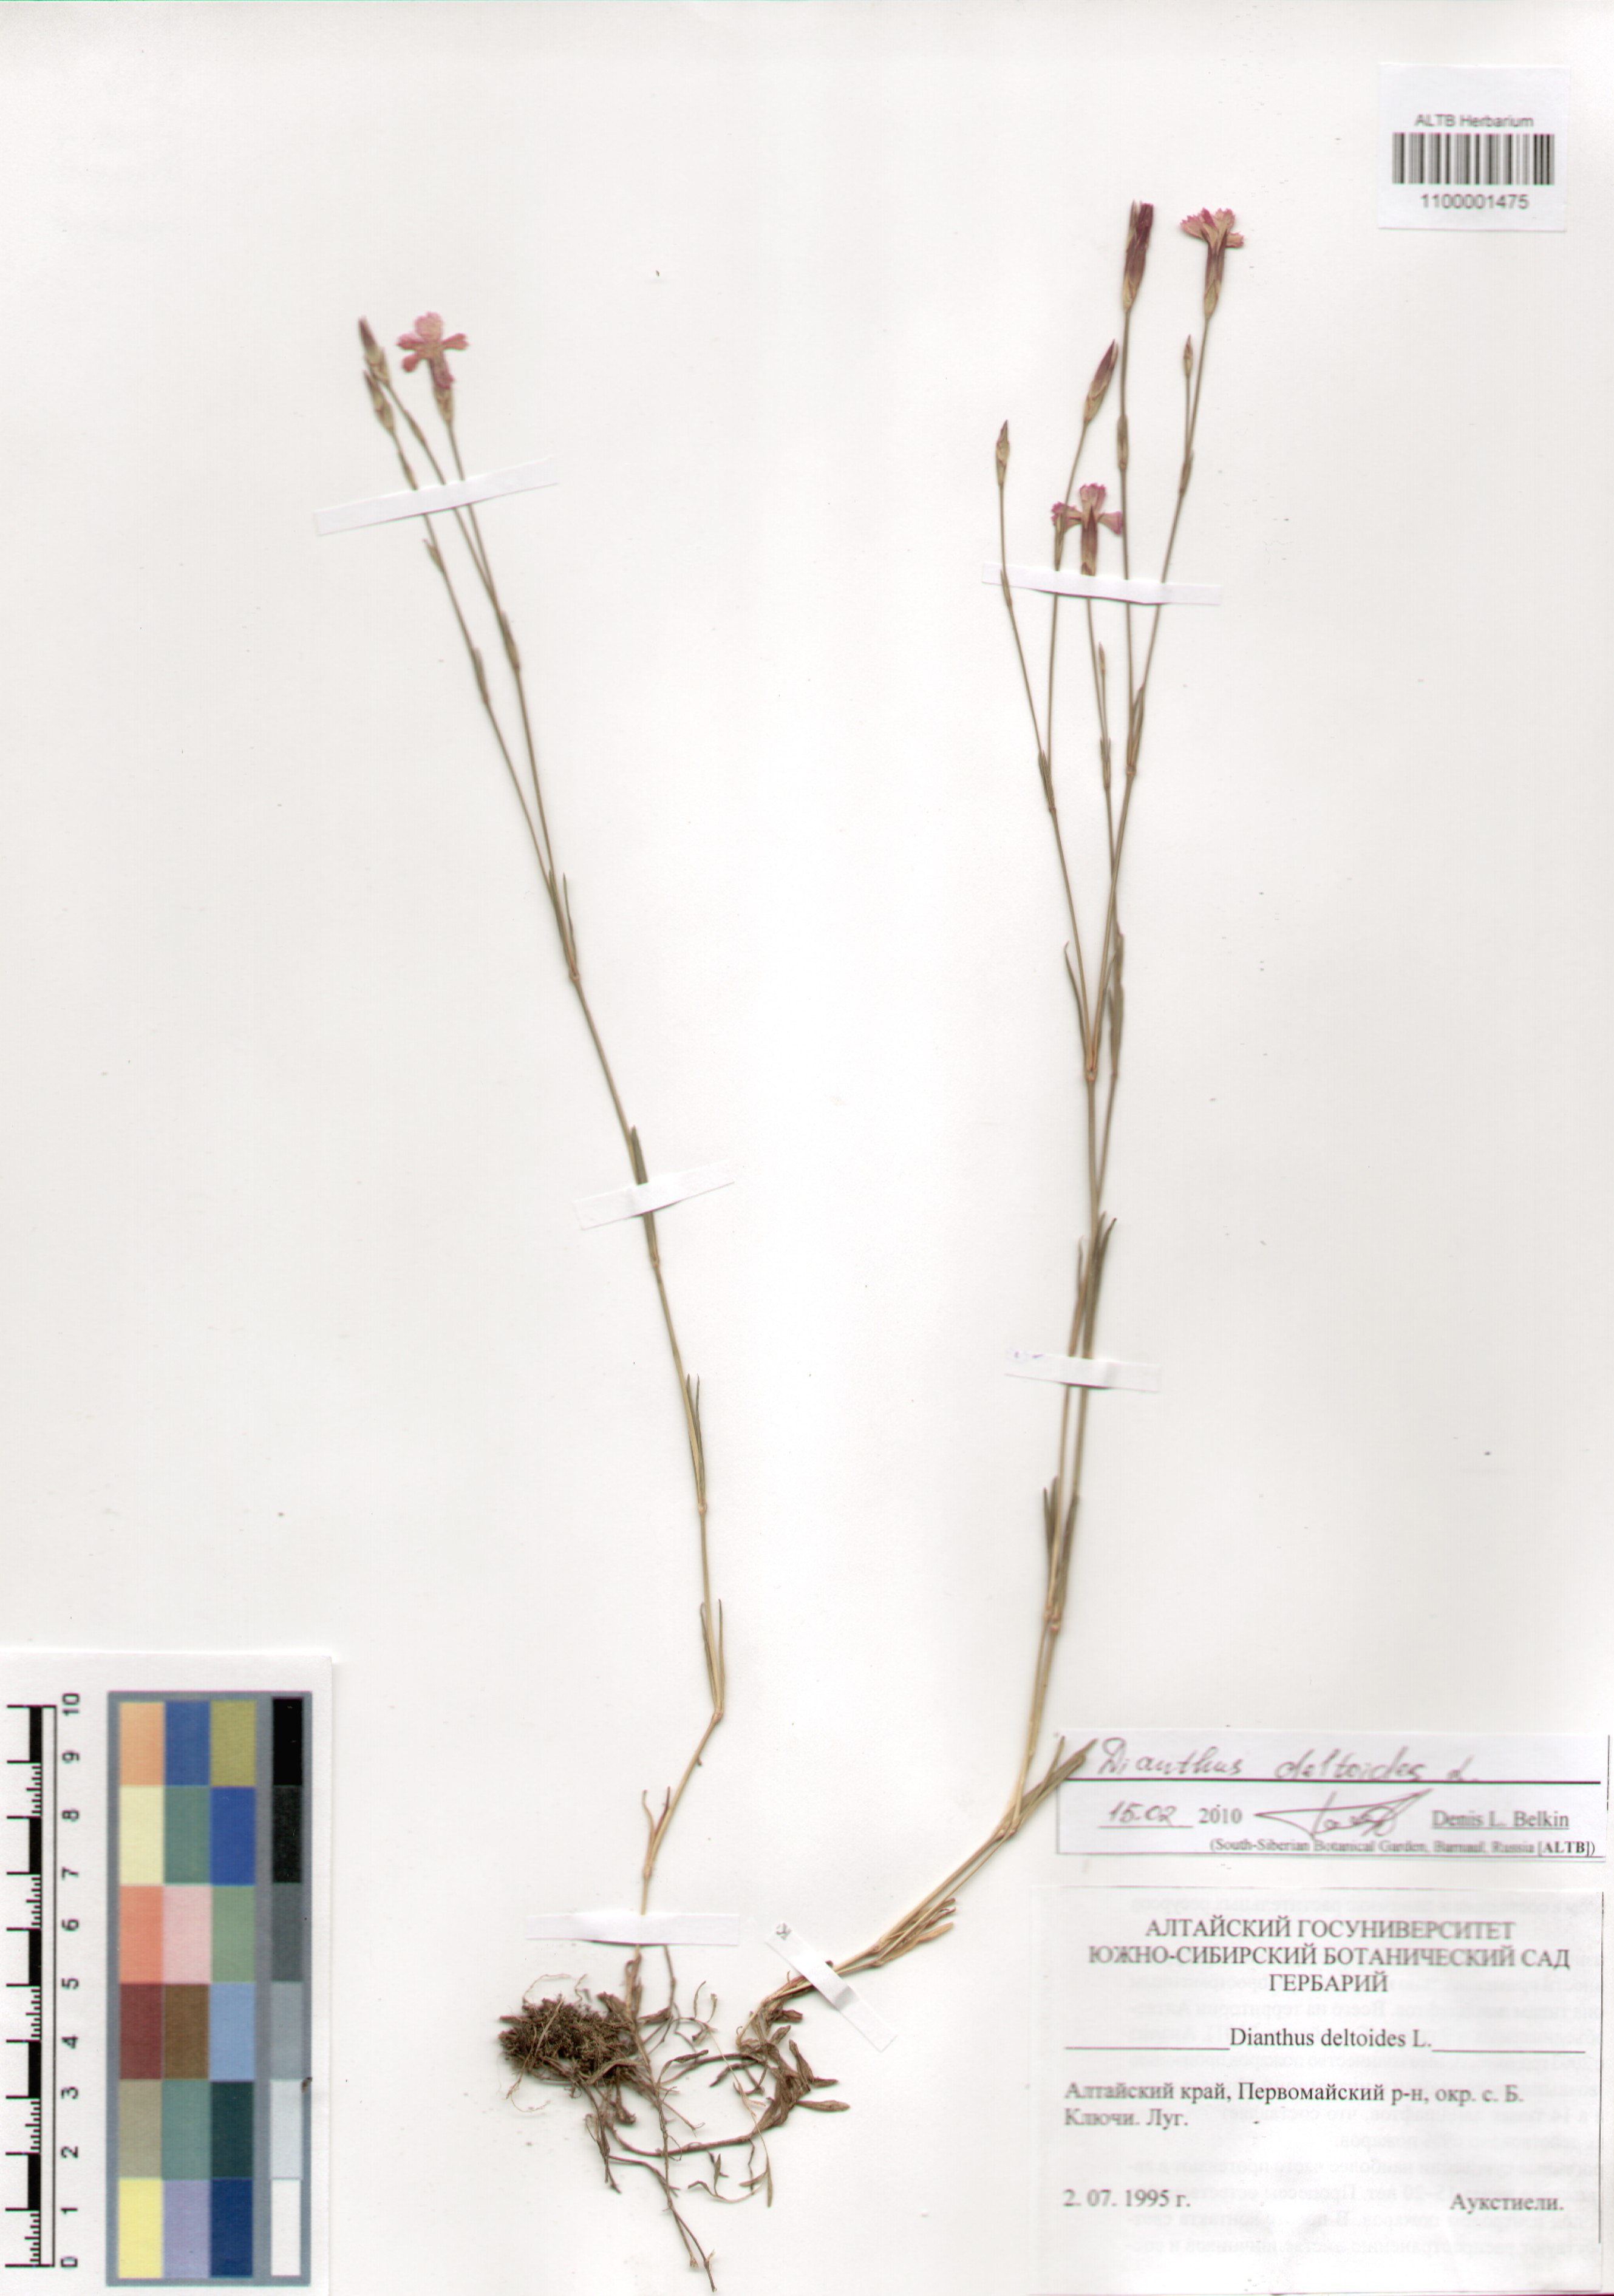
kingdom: Plantae
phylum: Tracheophyta
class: Magnoliopsida
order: Caryophyllales
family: Caryophyllaceae
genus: Dianthus
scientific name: Dianthus deltoides
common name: Maiden pink
